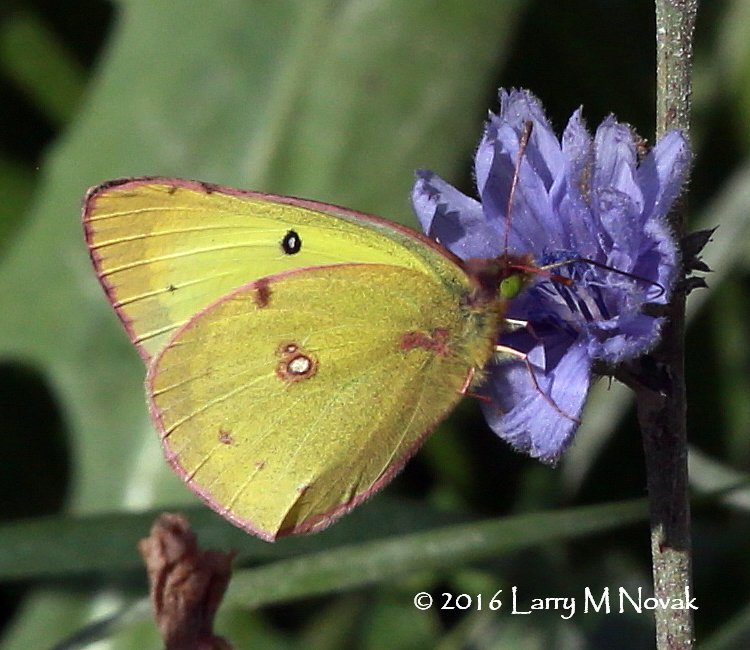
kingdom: Animalia
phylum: Arthropoda
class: Insecta
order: Lepidoptera
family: Pieridae
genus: Colias
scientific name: Colias philodice
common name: Clouded Sulphur
